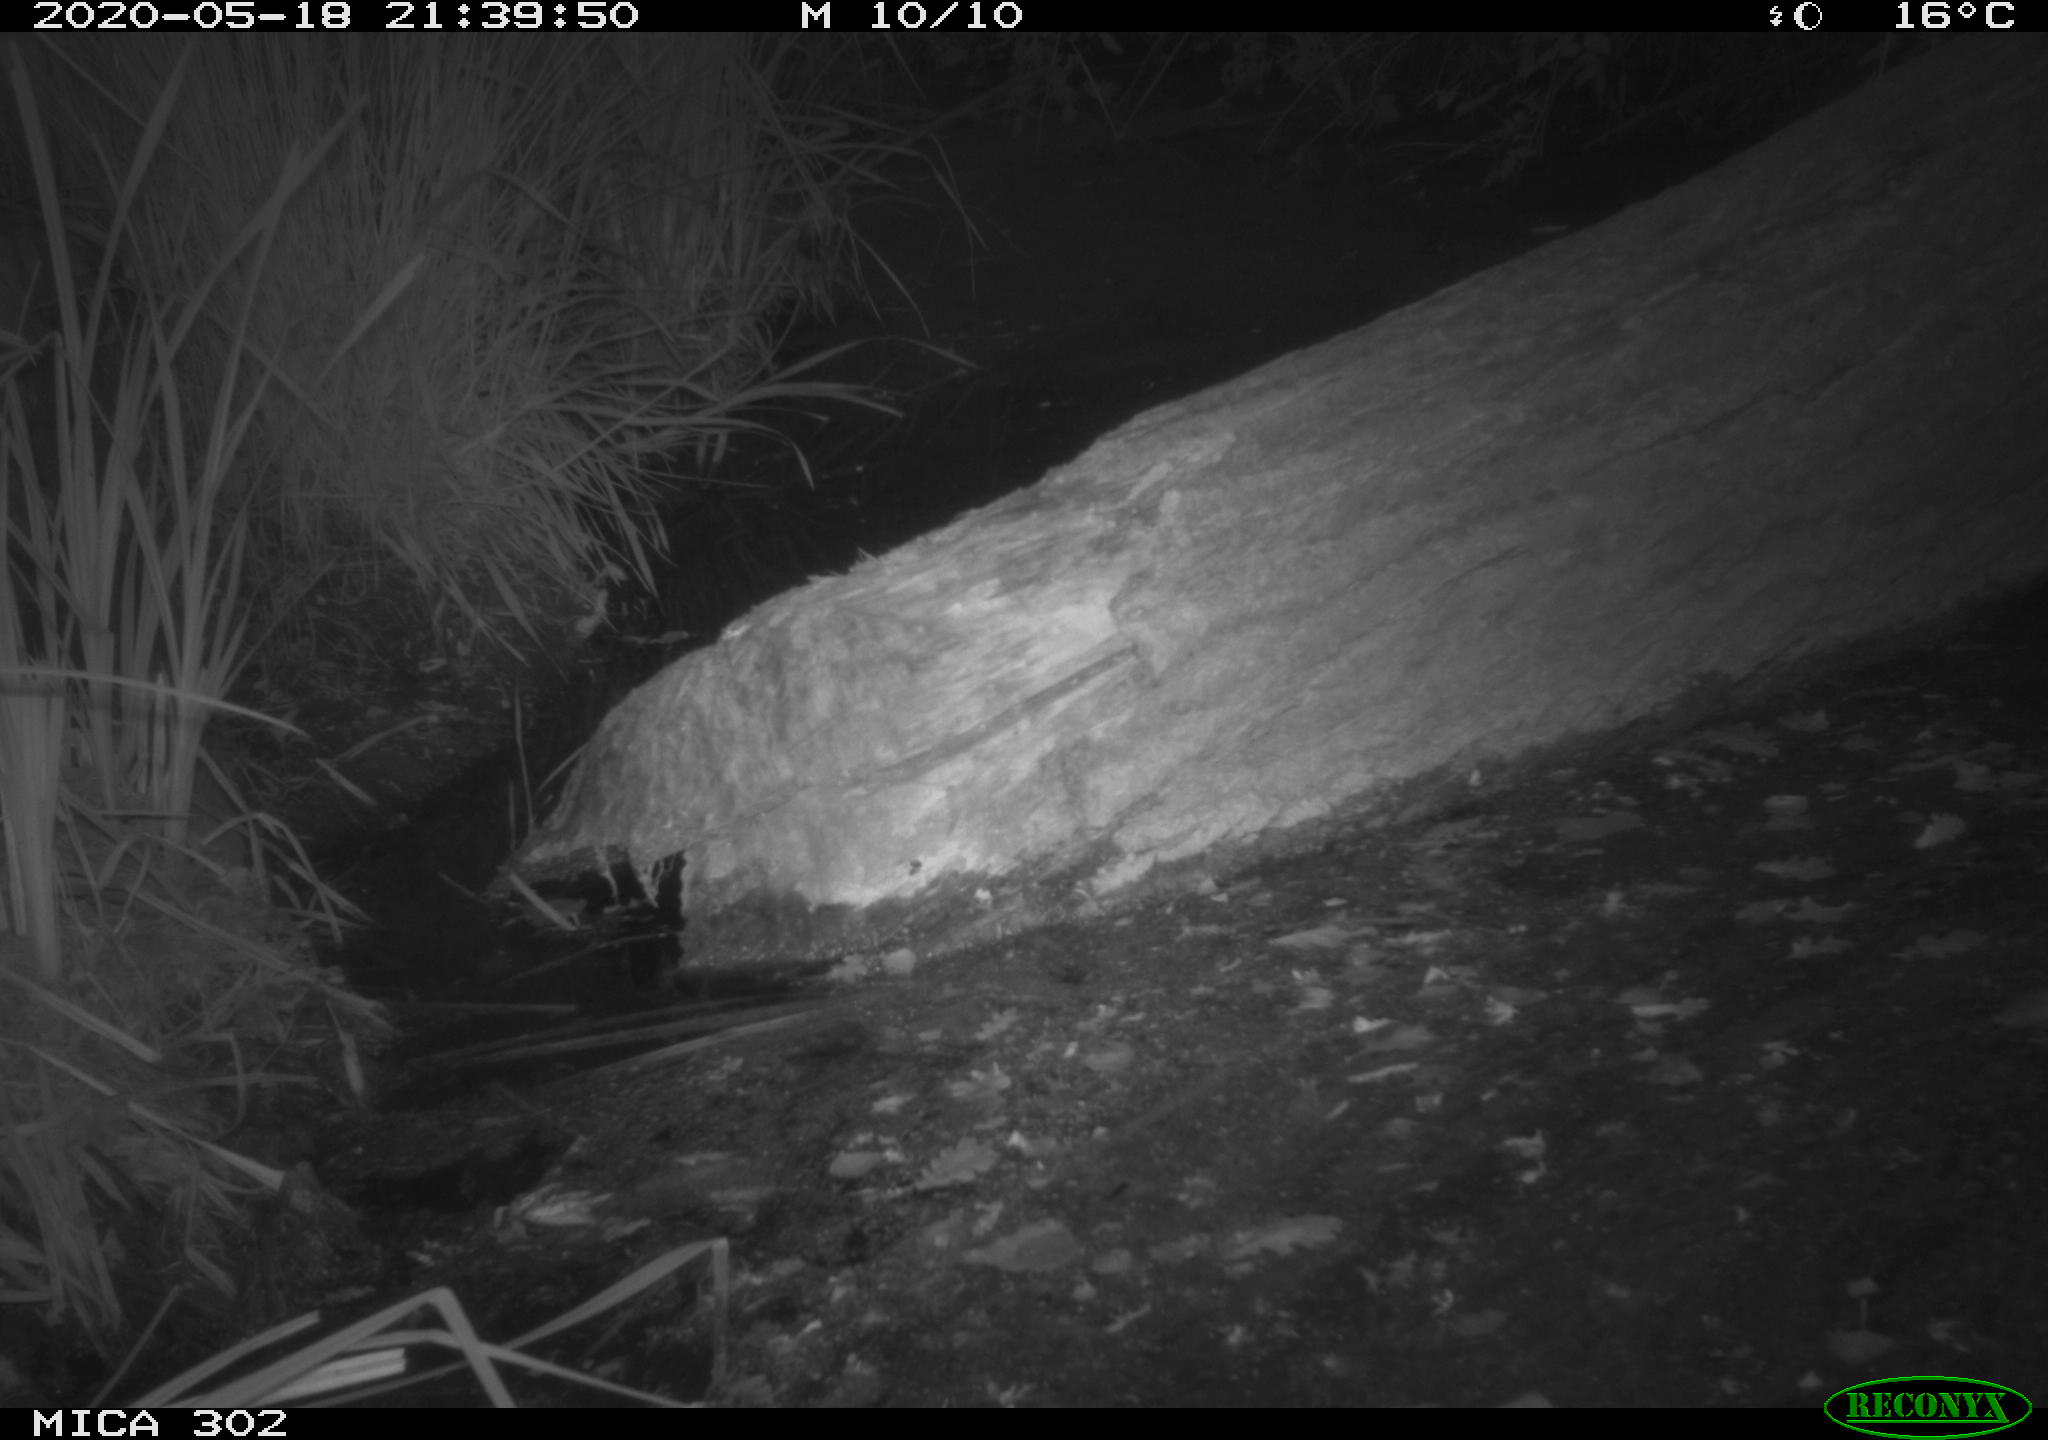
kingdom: Animalia
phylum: Chordata
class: Mammalia
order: Carnivora
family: Mustelidae
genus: Mustela
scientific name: Mustela putorius
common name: European polecat
